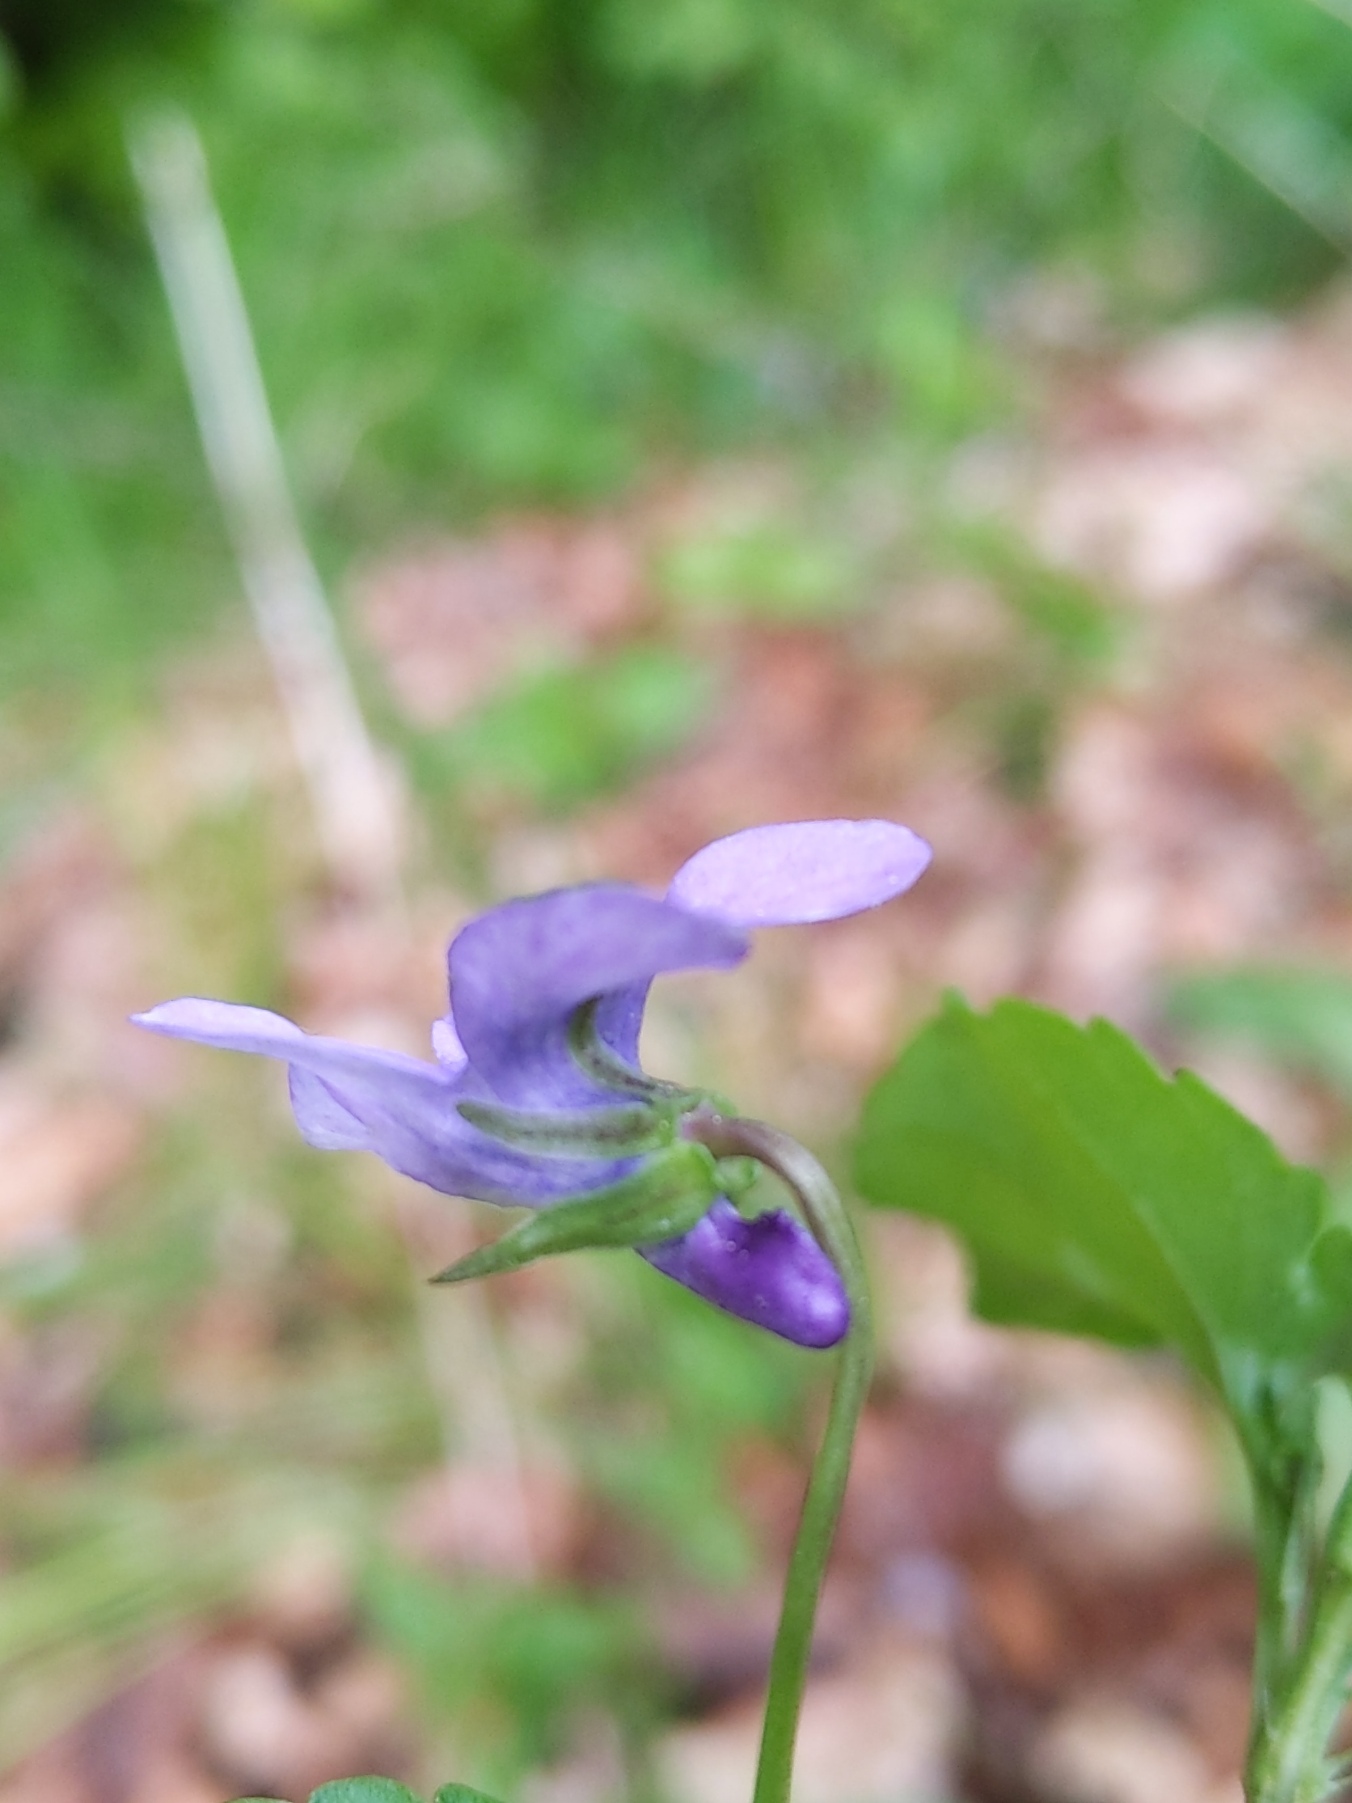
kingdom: Plantae
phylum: Tracheophyta
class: Magnoliopsida
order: Malpighiales
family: Violaceae
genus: Viola
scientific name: Viola reichenbachiana
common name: Skov-viol
